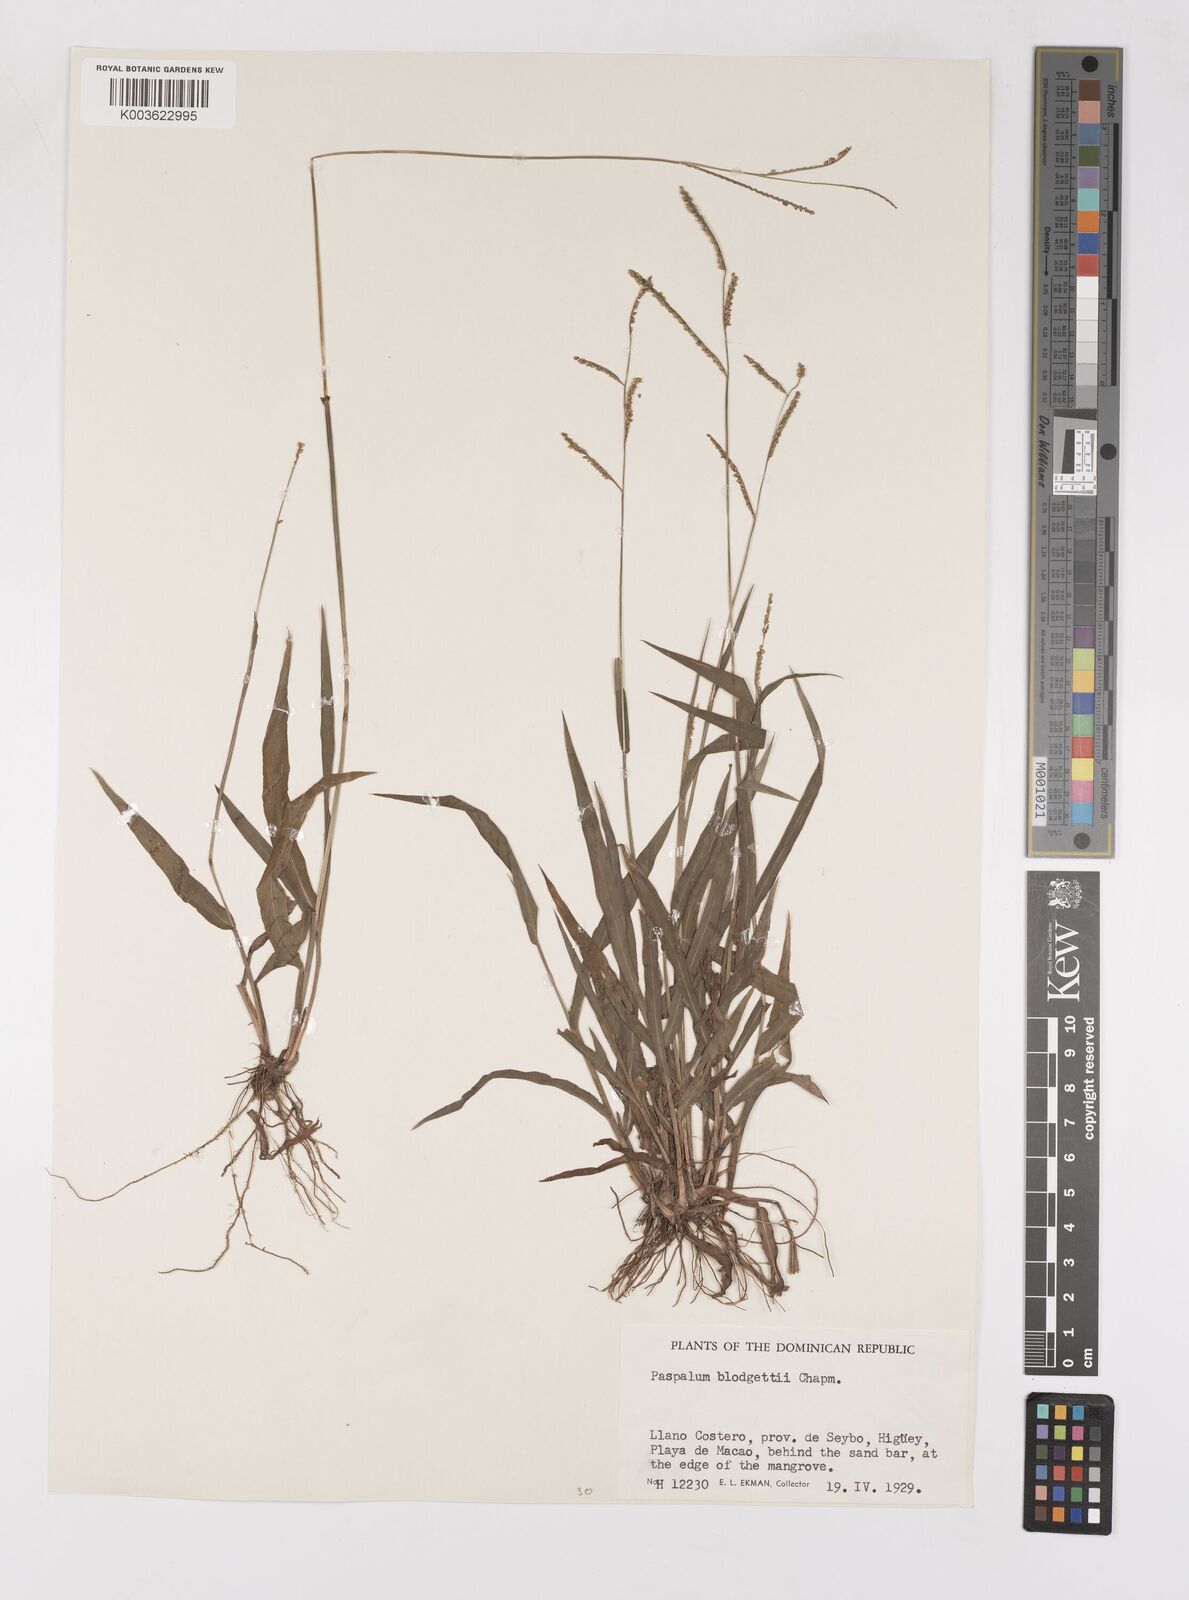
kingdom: Plantae
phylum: Tracheophyta
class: Liliopsida
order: Poales
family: Poaceae
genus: Paspalum
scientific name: Paspalum blodgettii
